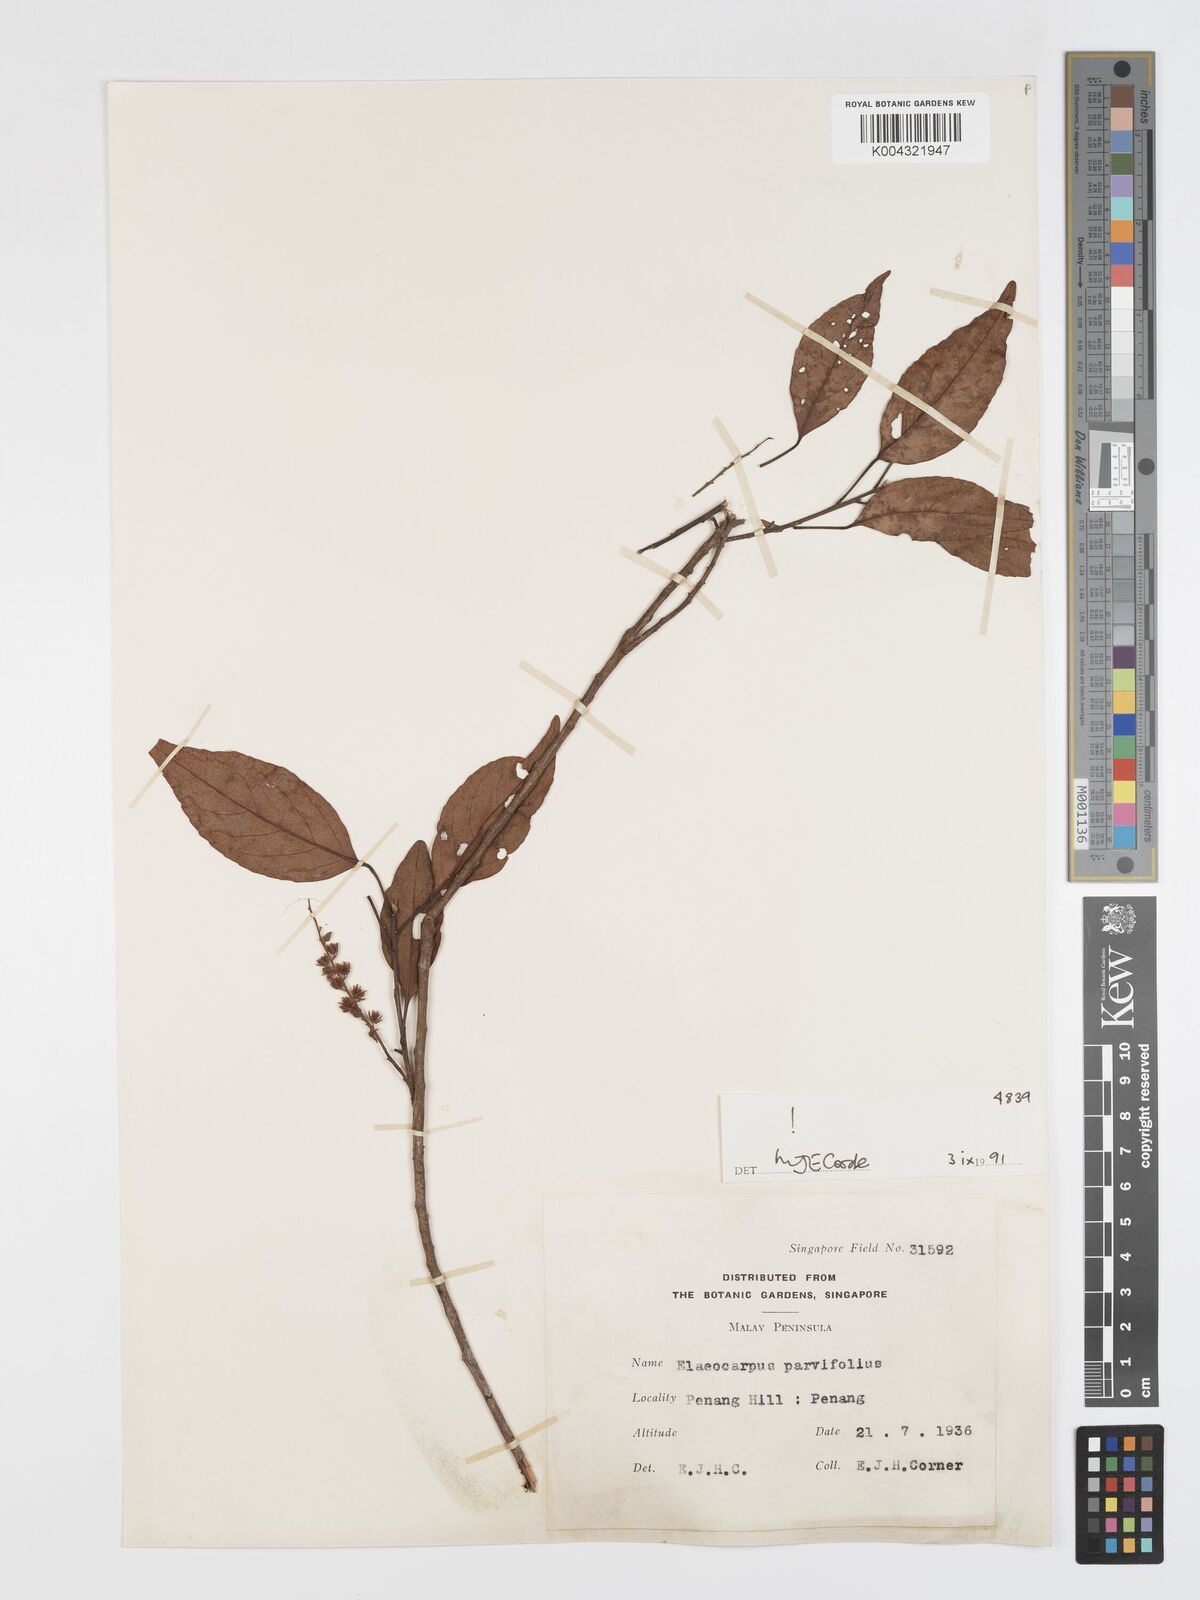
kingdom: Plantae
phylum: Tracheophyta
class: Magnoliopsida
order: Oxalidales
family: Elaeocarpaceae
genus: Elaeocarpus
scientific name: Elaeocarpus nitidus
